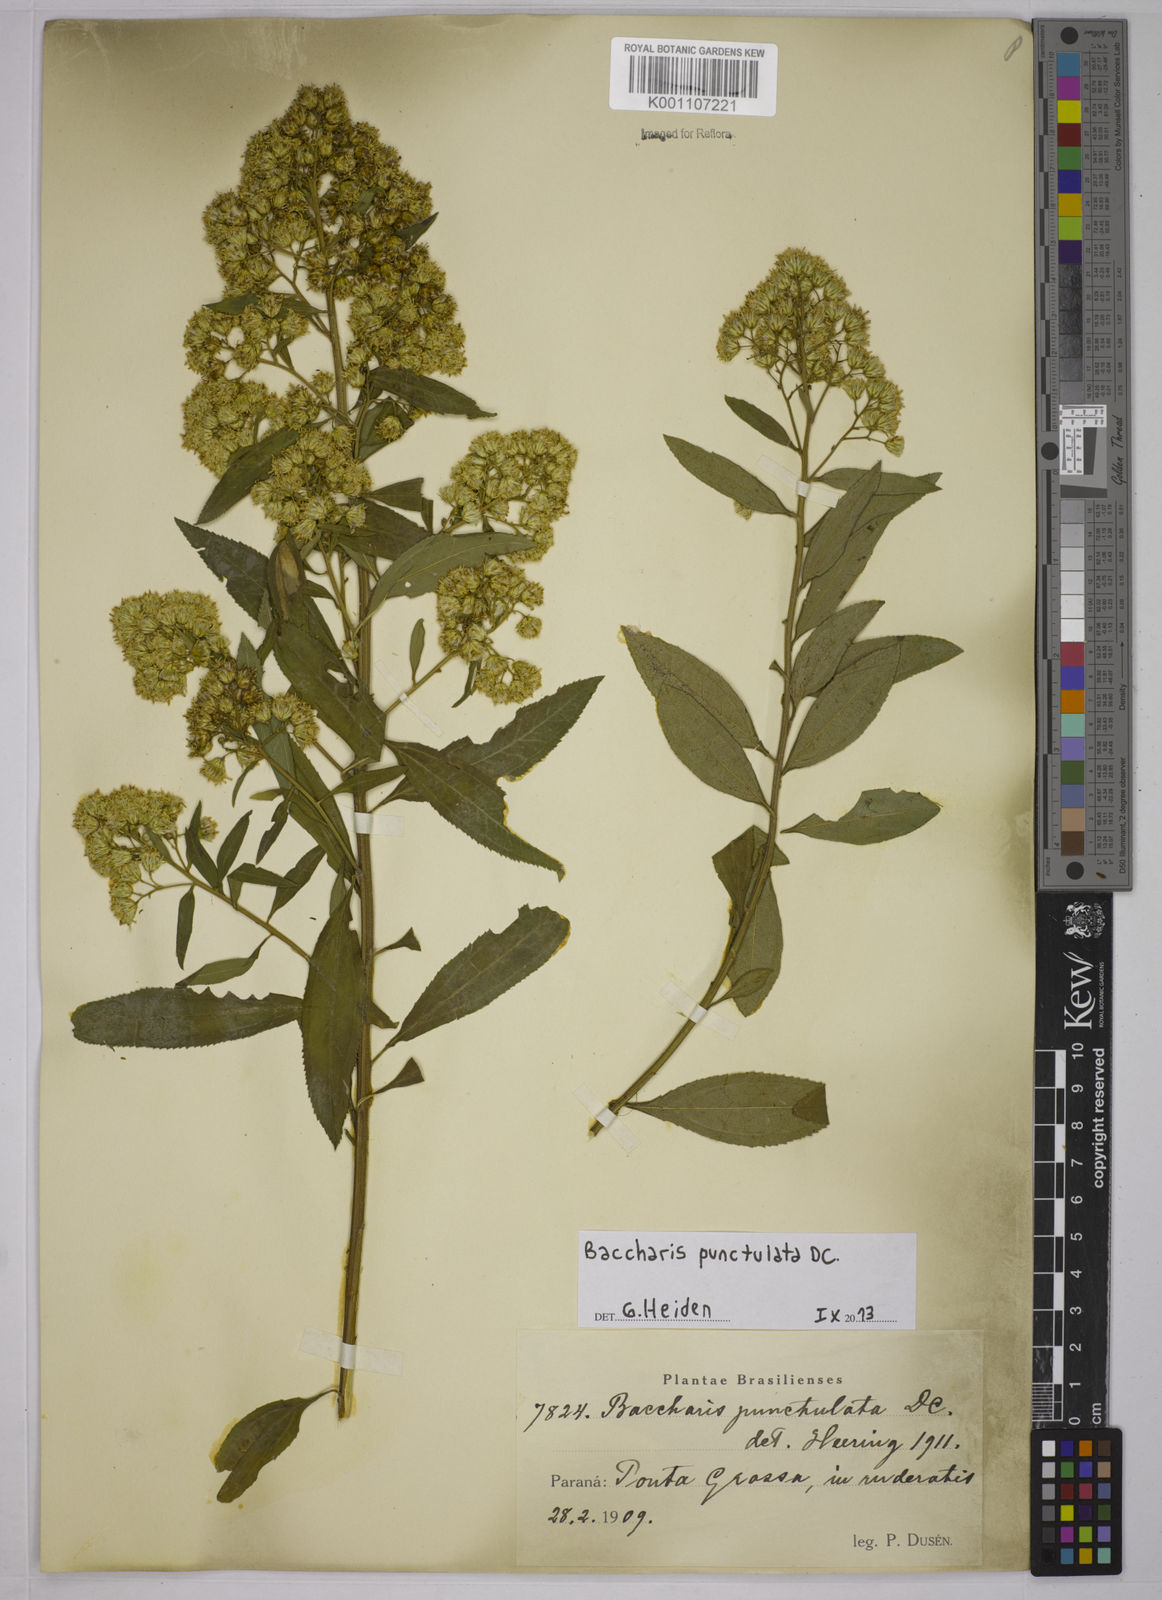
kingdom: Plantae
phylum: Tracheophyta
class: Magnoliopsida
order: Asterales
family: Asteraceae
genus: Baccharis
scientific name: Baccharis punctulata
